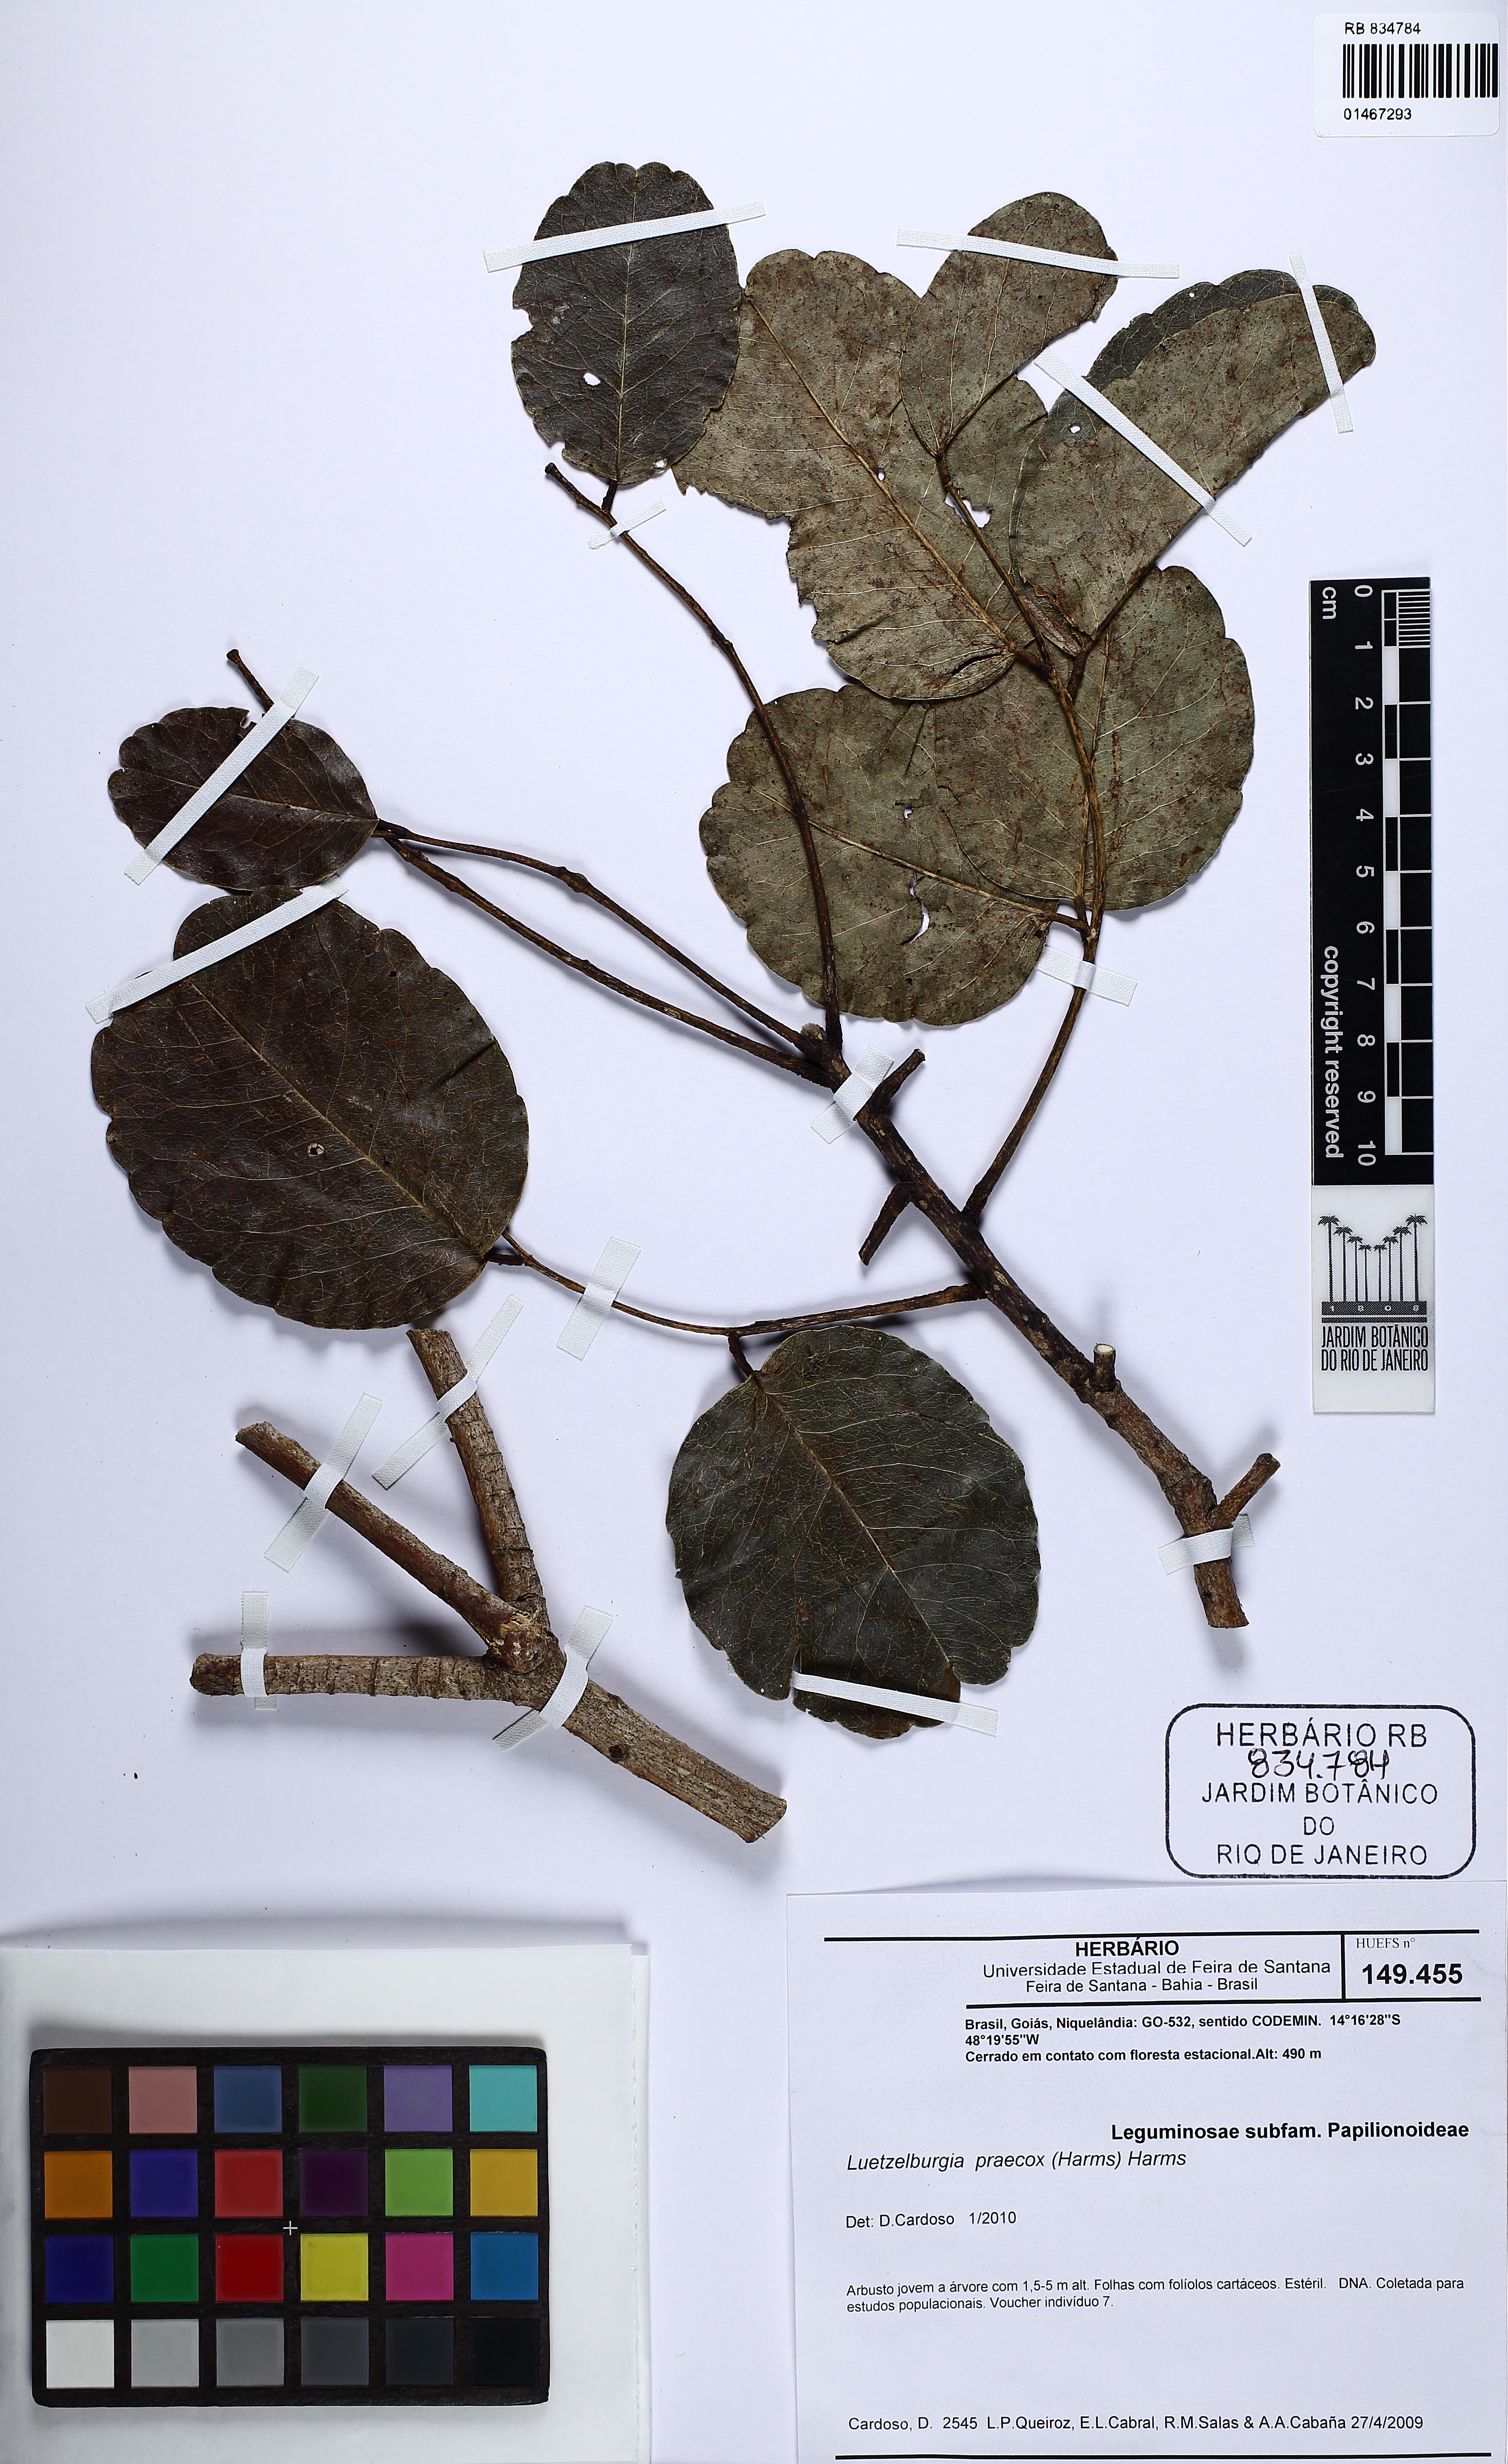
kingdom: Plantae
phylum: Tracheophyta
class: Magnoliopsida
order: Fabales
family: Fabaceae
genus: Luetzelburgia
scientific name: Luetzelburgia praecox
